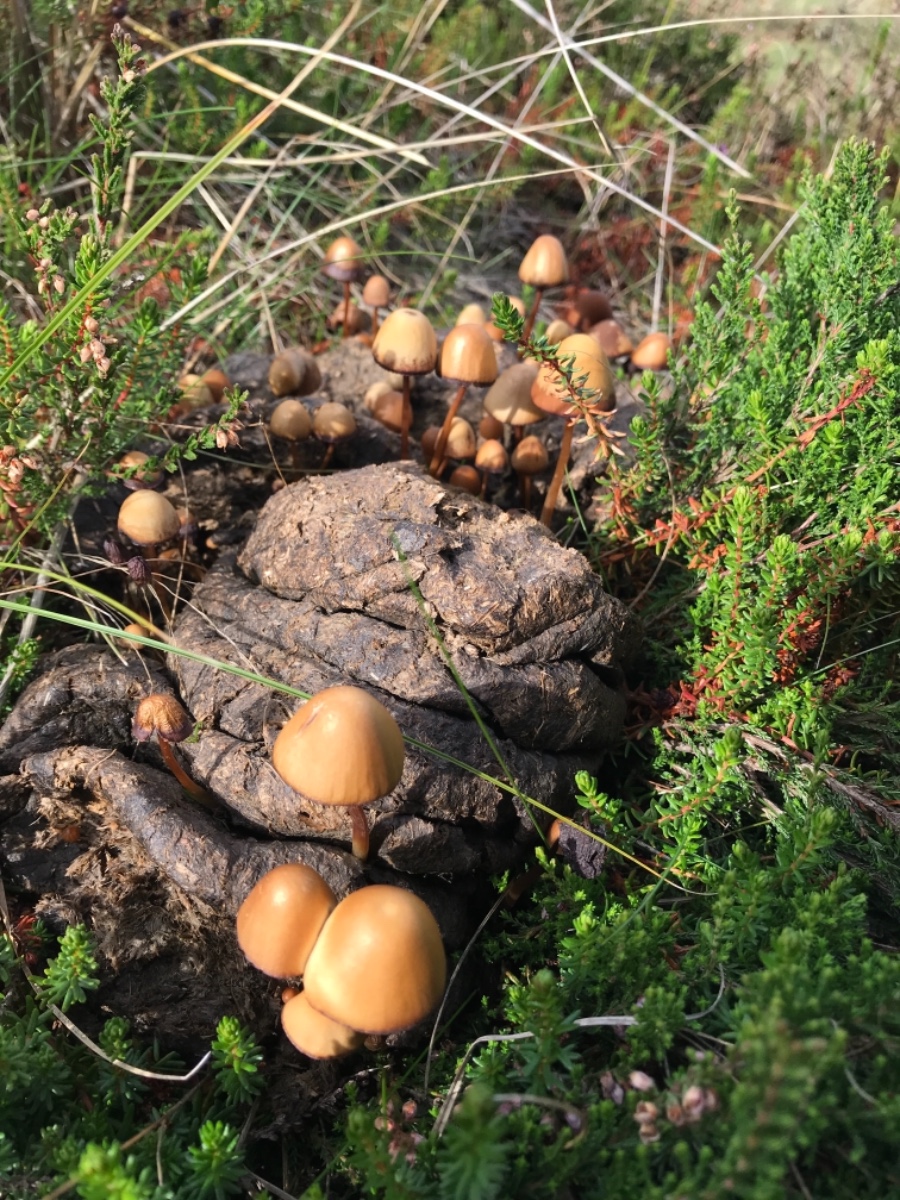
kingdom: Fungi
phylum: Basidiomycota
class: Agaricomycetes
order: Agaricales
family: Bolbitiaceae
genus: Conocybe
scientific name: Conocybe
